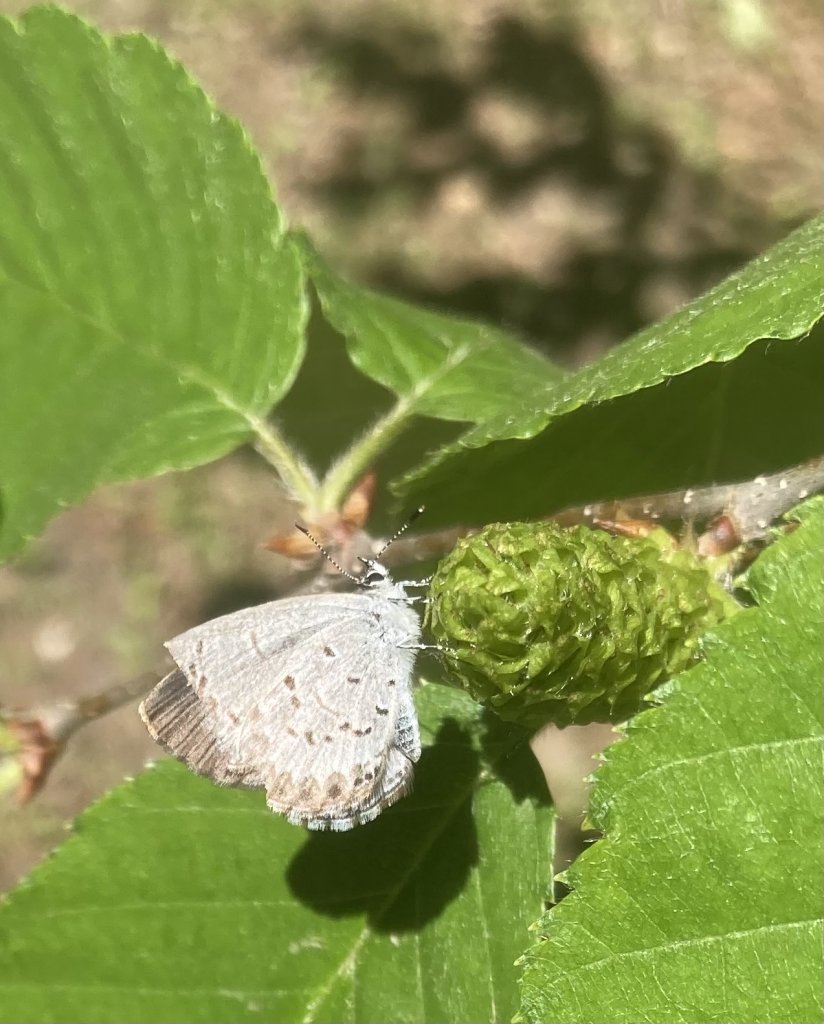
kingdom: Animalia
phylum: Arthropoda
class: Insecta
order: Lepidoptera
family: Lycaenidae
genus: Celastrina
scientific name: Celastrina lucia
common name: Northern Spring Azure
